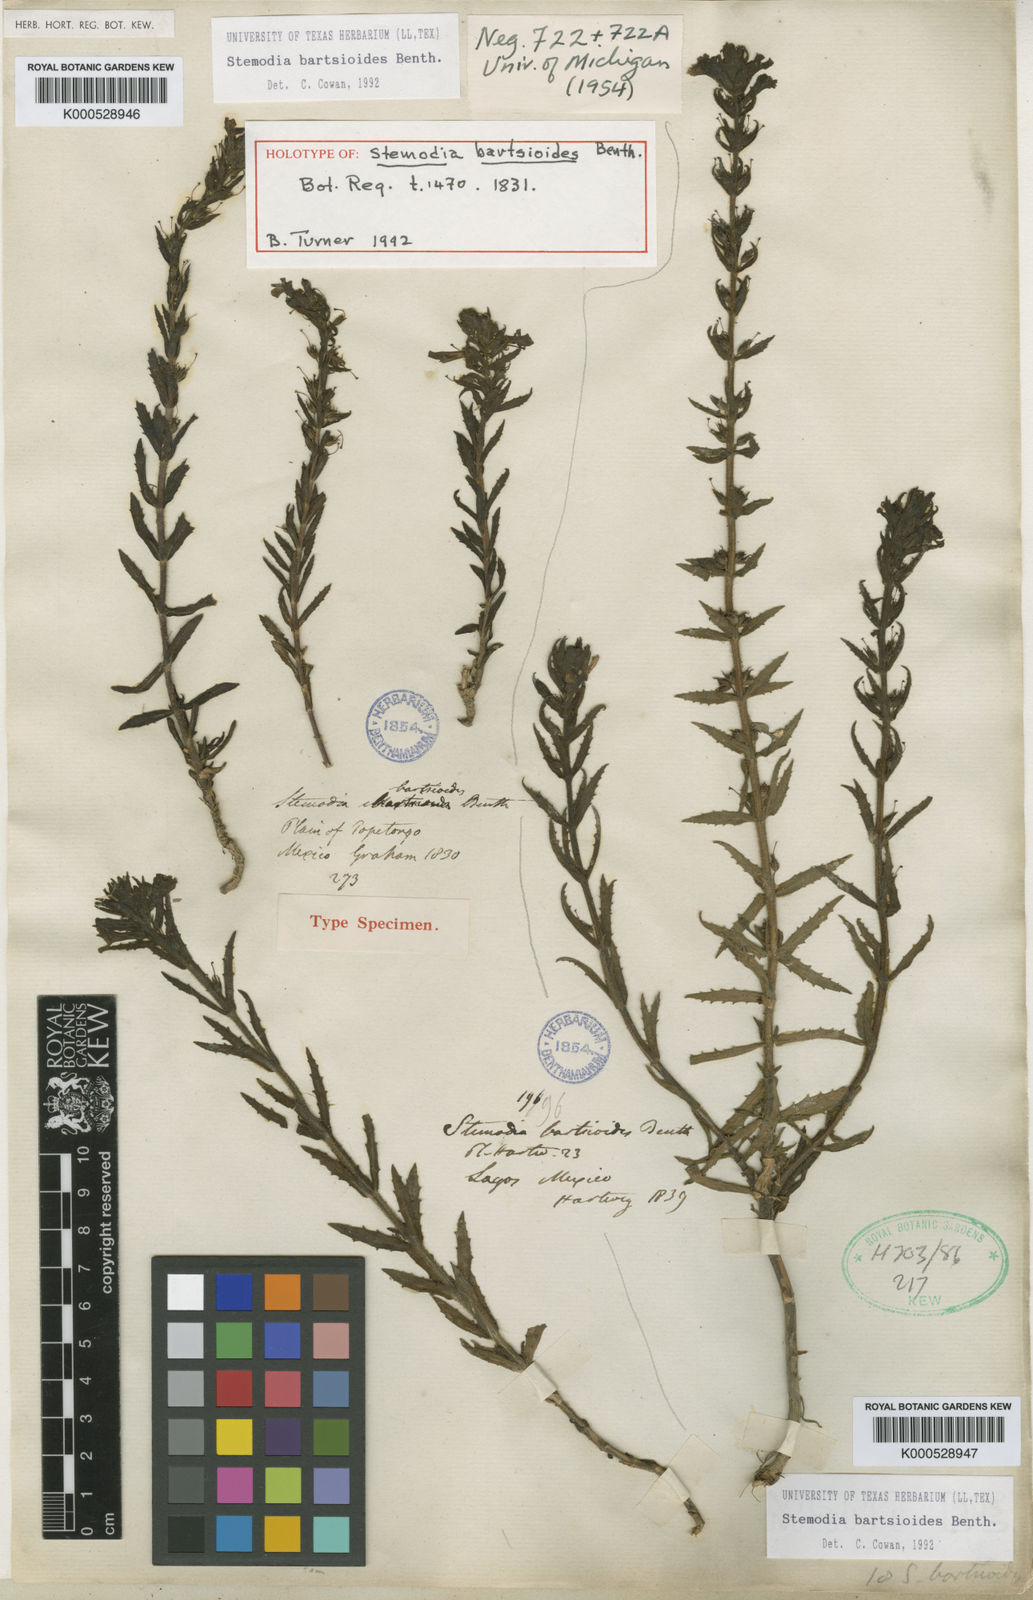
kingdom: Plantae
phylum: Tracheophyta
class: Magnoliopsida
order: Lamiales
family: Plantaginaceae
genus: Stemodia
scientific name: Stemodia bartsioides
